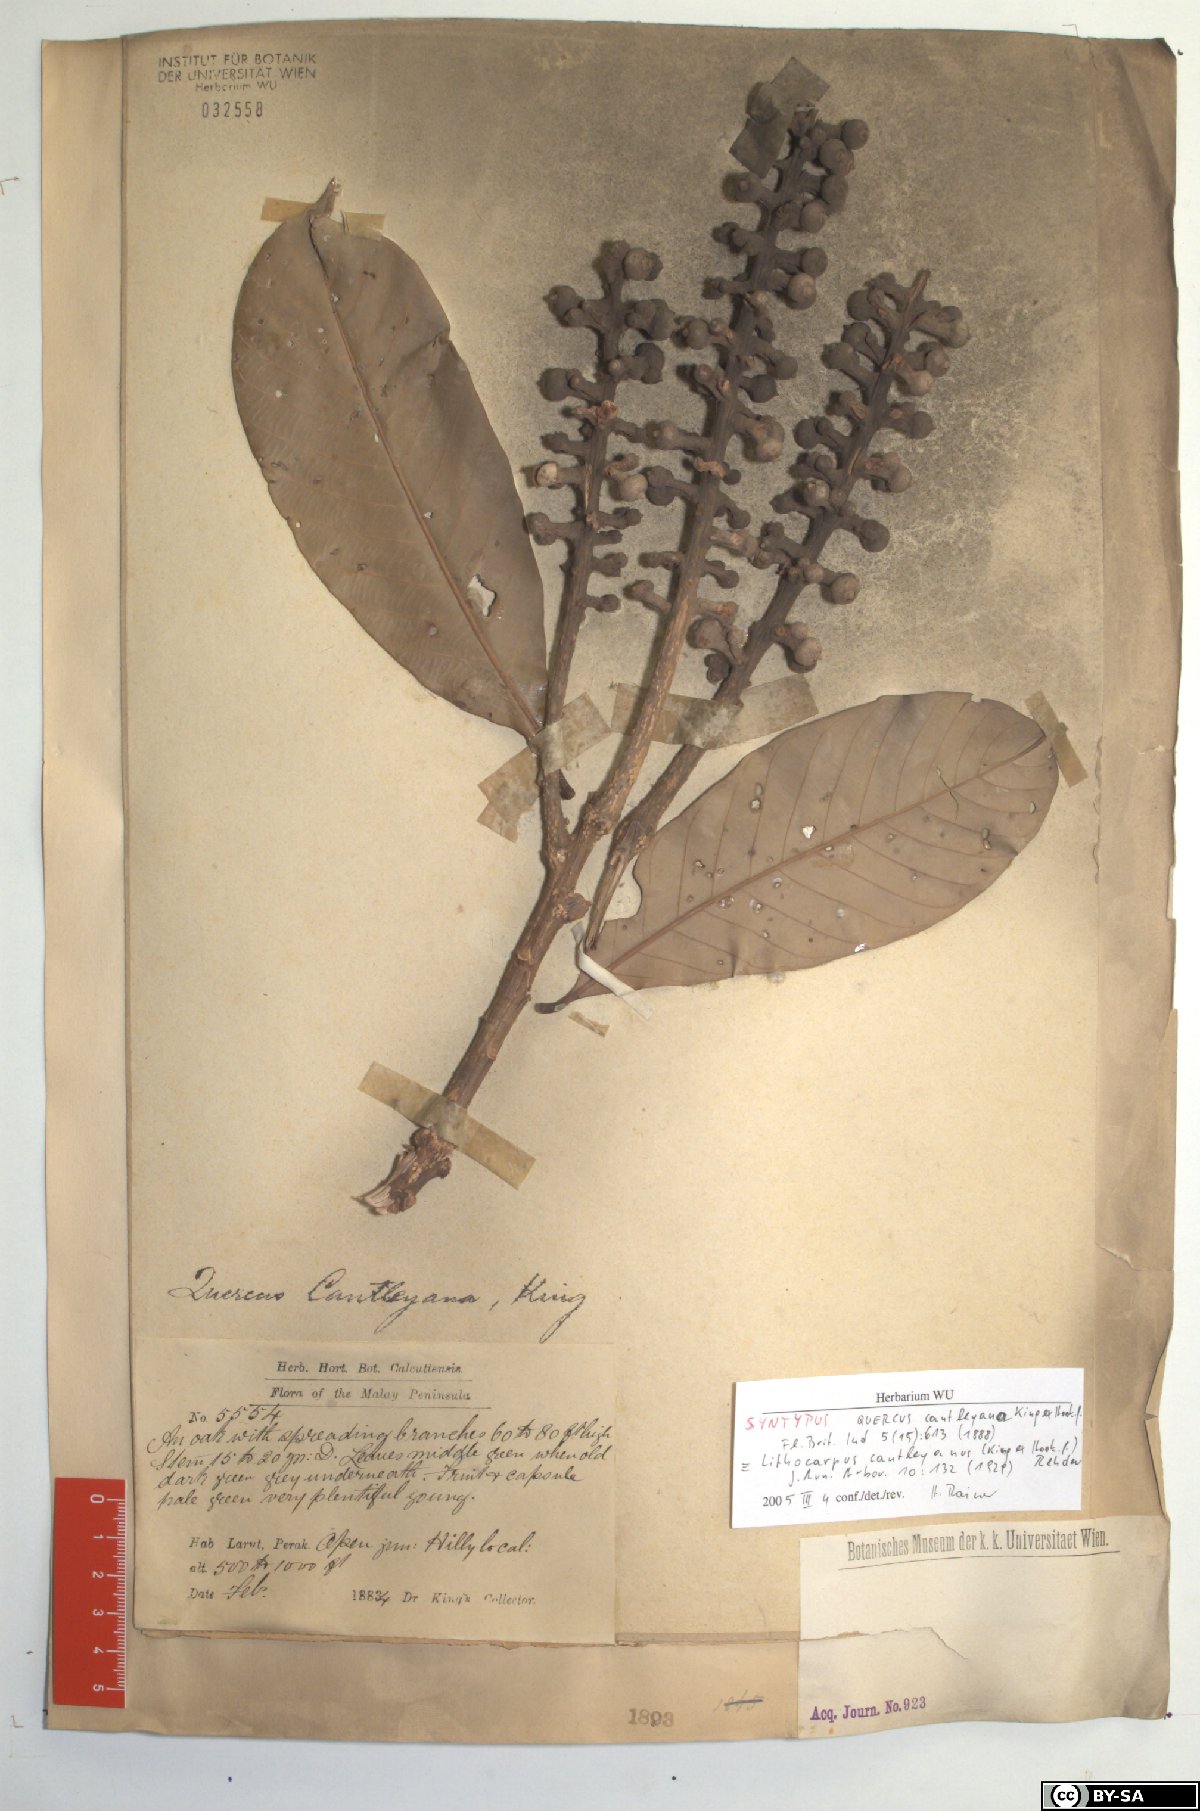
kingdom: Plantae
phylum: Tracheophyta
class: Magnoliopsida
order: Fagales
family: Fagaceae
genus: Lithocarpus
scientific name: Lithocarpus cantleyanus
